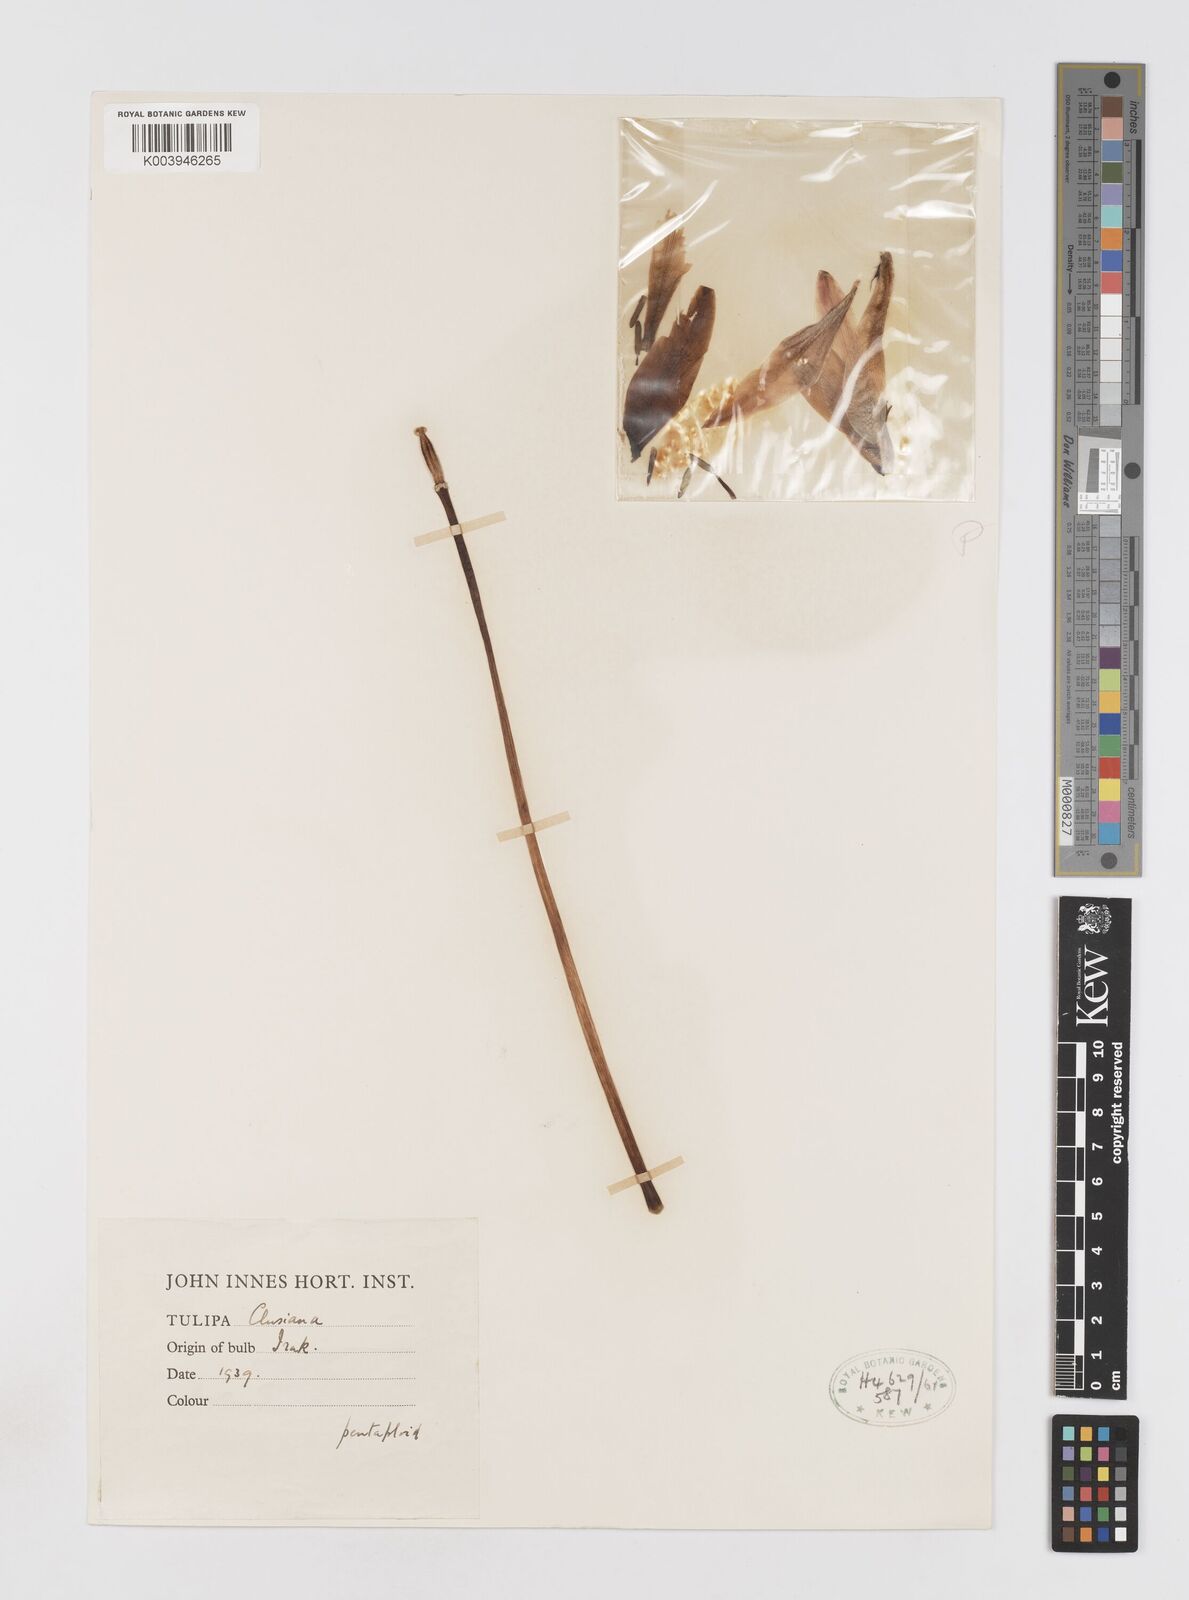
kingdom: Plantae
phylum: Tracheophyta
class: Liliopsida
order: Liliales
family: Liliaceae
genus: Tulipa
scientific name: Tulipa clusiana
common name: Lady tulip
